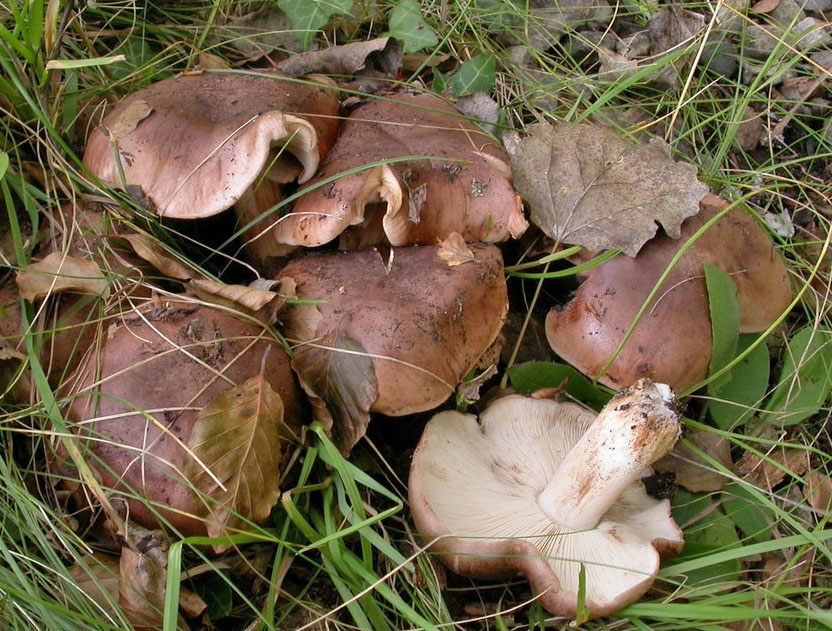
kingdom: Fungi
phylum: Basidiomycota
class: Agaricomycetes
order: Agaricales
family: Tricholomataceae
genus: Tricholoma
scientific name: Tricholoma populinum
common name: poppel-ridderhat
